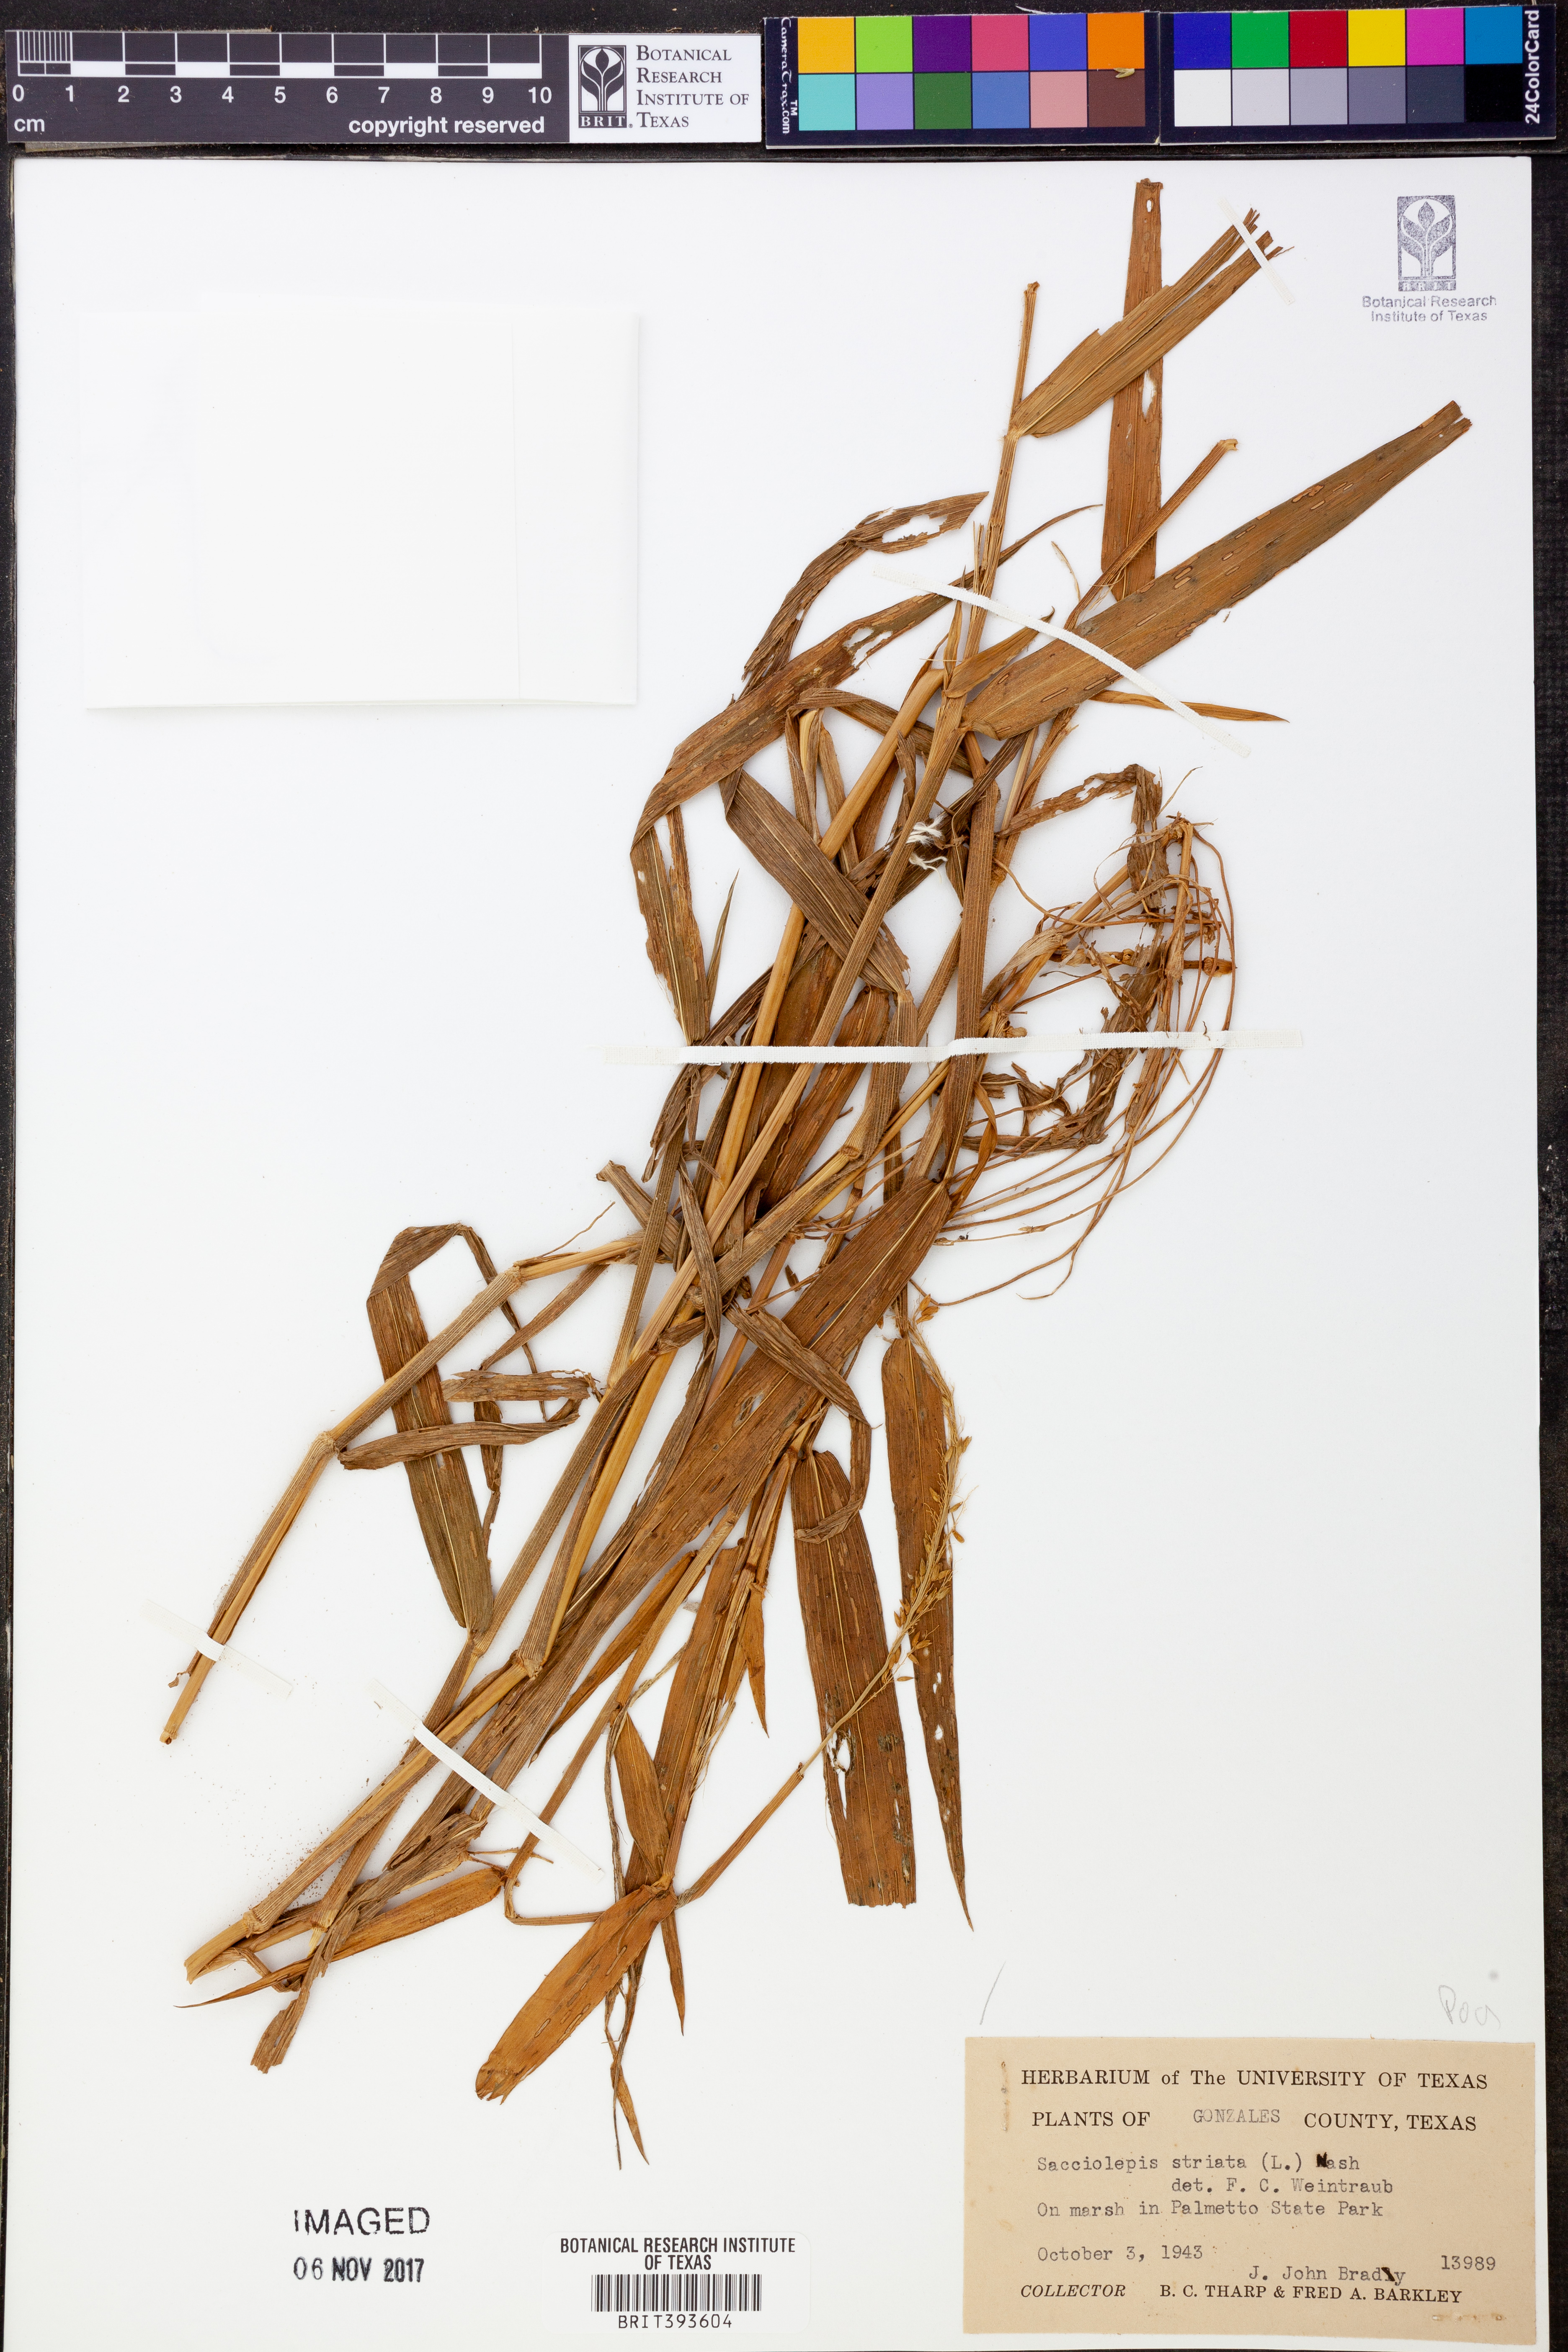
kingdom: Plantae
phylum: Tracheophyta
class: Liliopsida
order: Poales
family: Poaceae
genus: Sacciolepis
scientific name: Sacciolepis striata
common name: American cupscale
